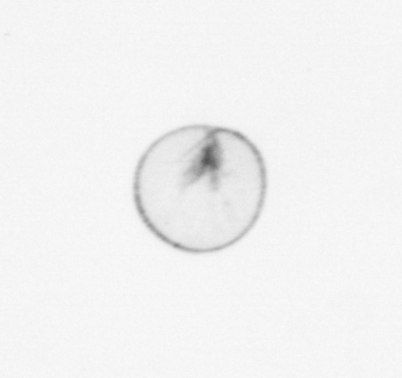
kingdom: Chromista
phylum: Myzozoa
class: Dinophyceae
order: Noctilucales
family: Noctilucaceae
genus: Noctiluca
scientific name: Noctiluca scintillans
